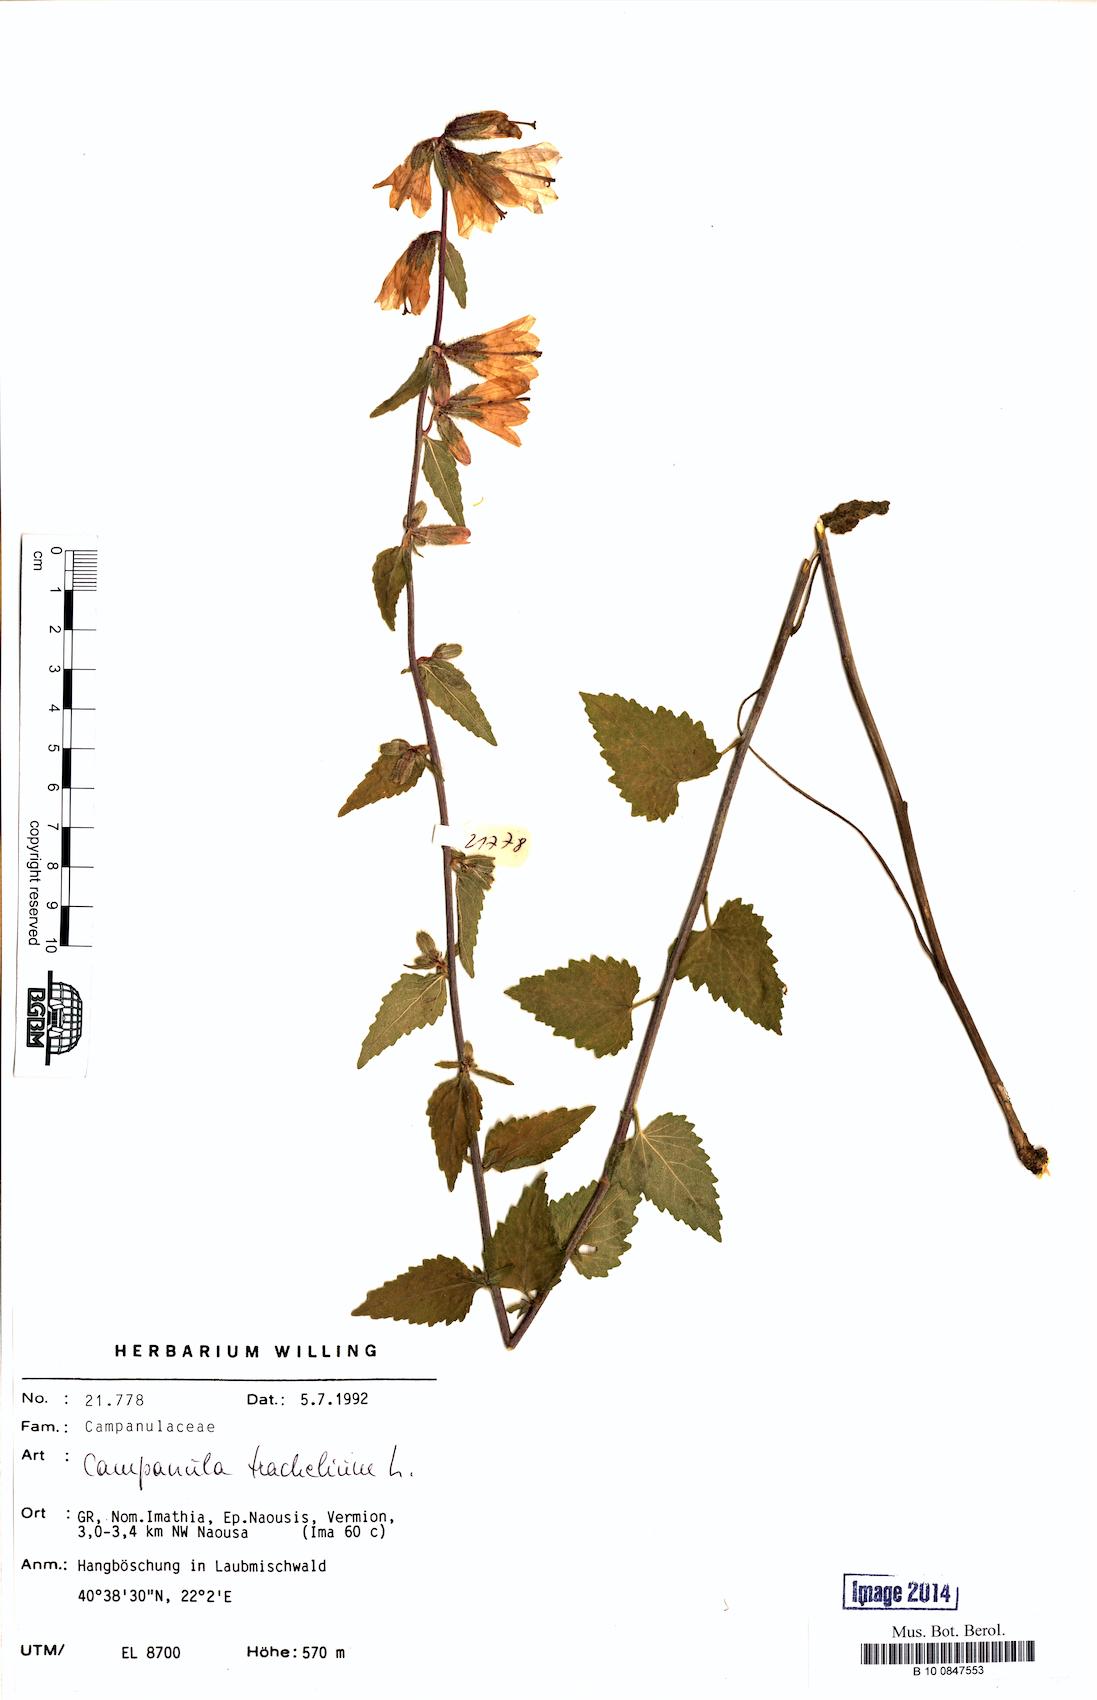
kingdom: Plantae
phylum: Tracheophyta
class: Magnoliopsida
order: Asterales
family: Campanulaceae
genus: Campanula
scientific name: Campanula trachelium
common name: Nettle-leaved bellflower
